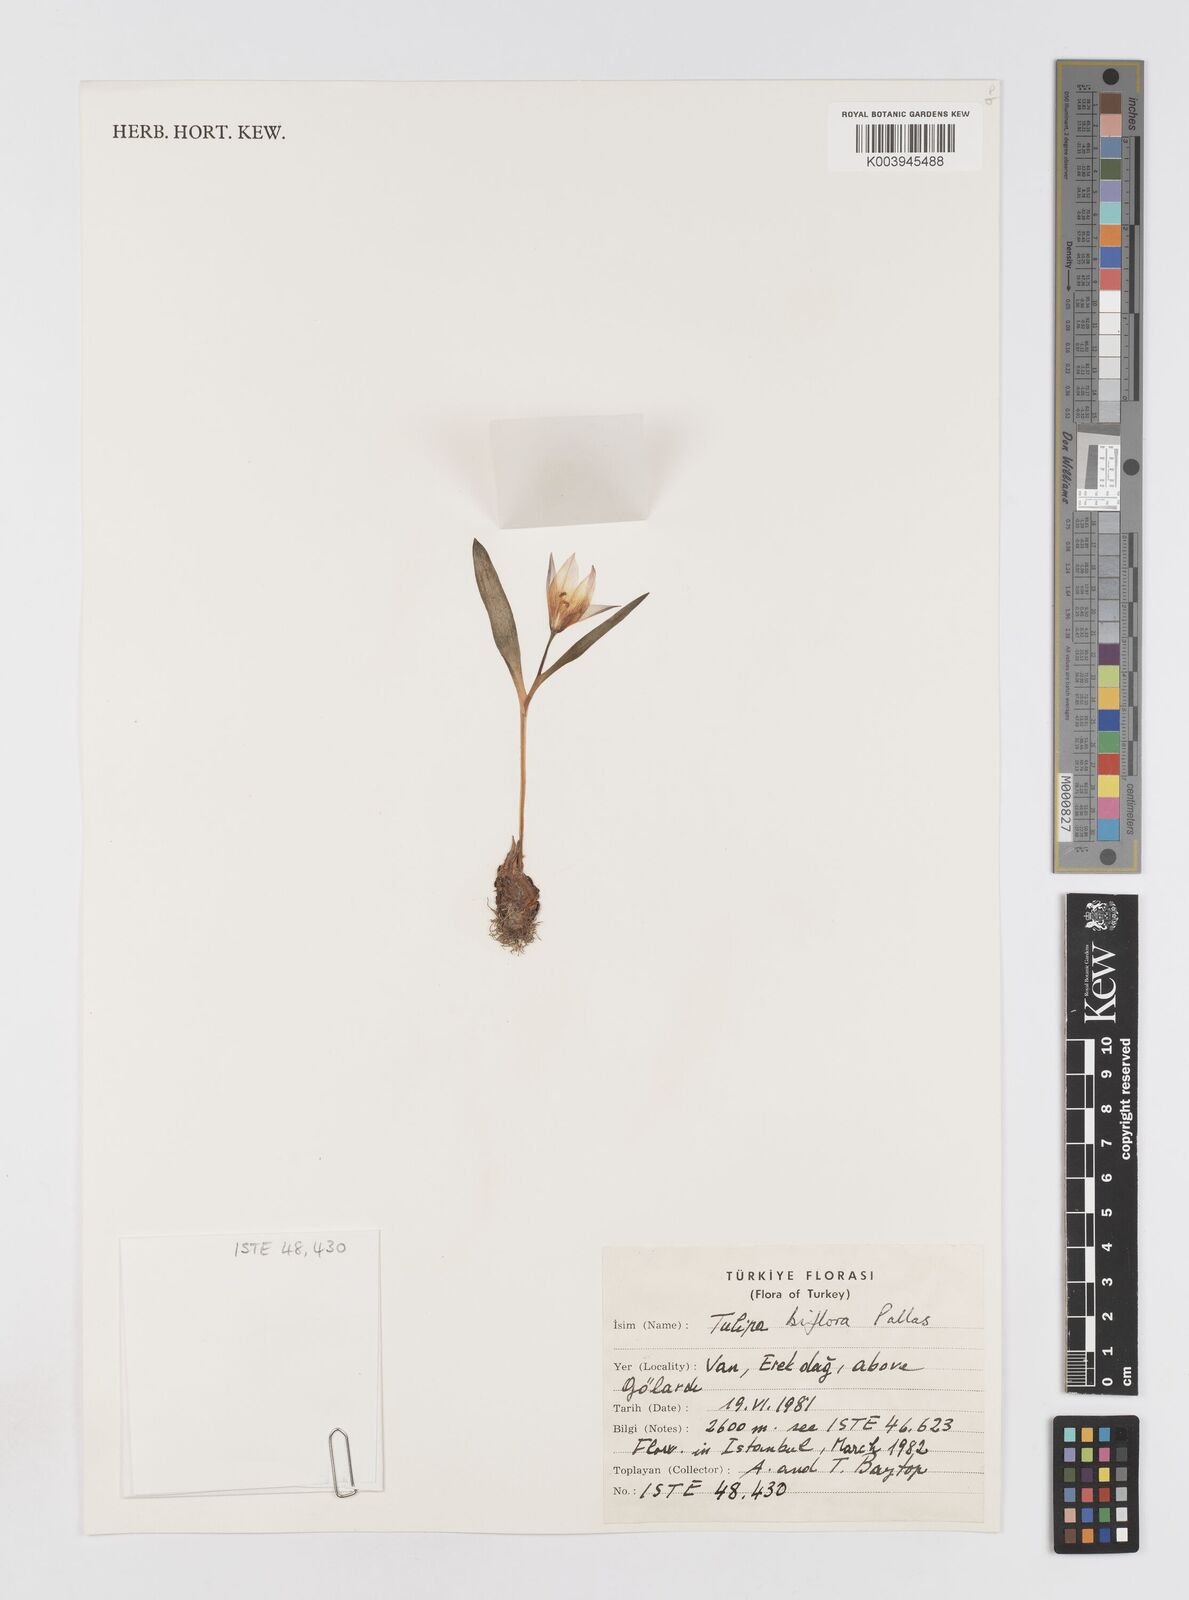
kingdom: Plantae
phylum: Tracheophyta
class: Liliopsida
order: Liliales
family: Liliaceae
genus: Tulipa
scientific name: Tulipa biflora
